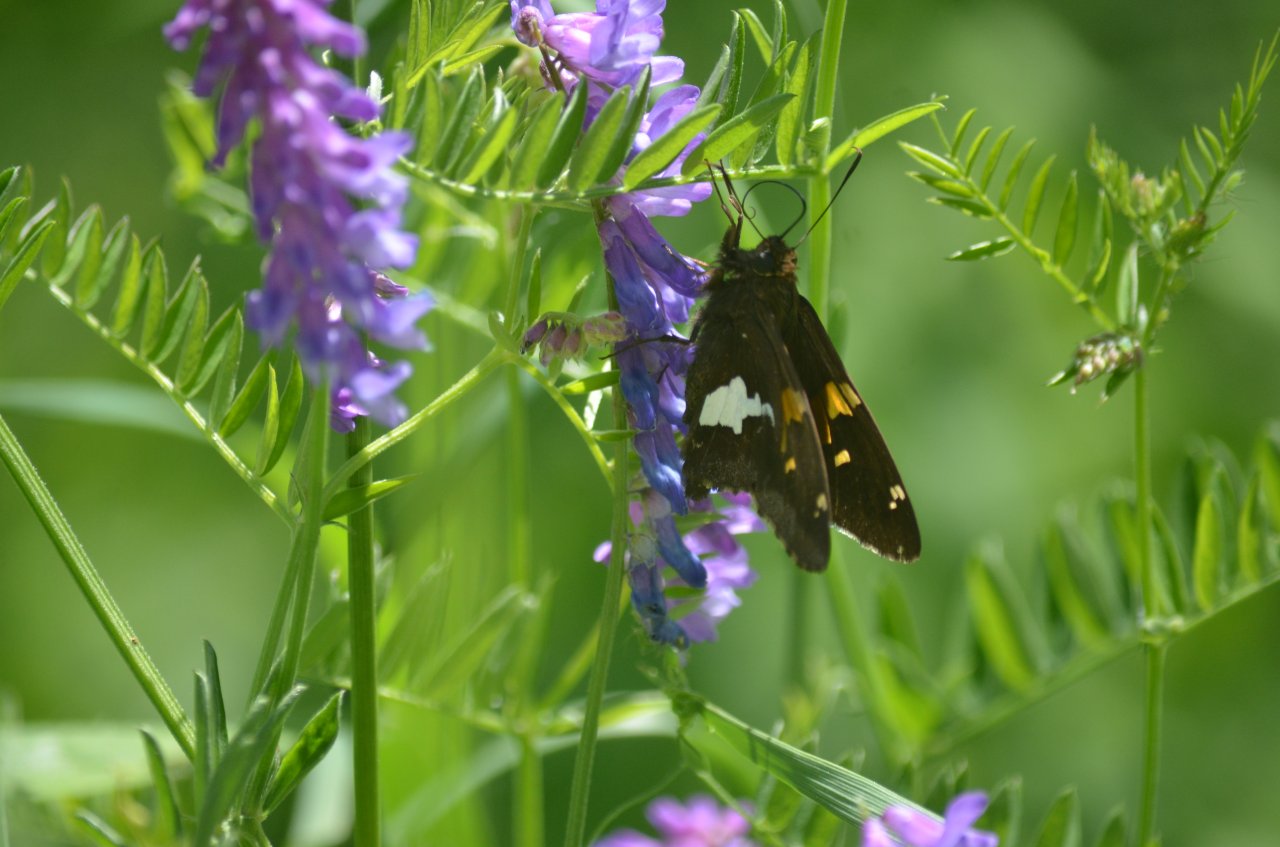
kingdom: Animalia
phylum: Arthropoda
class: Insecta
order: Lepidoptera
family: Hesperiidae
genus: Epargyreus
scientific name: Epargyreus clarus
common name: Silver-spotted Skipper
